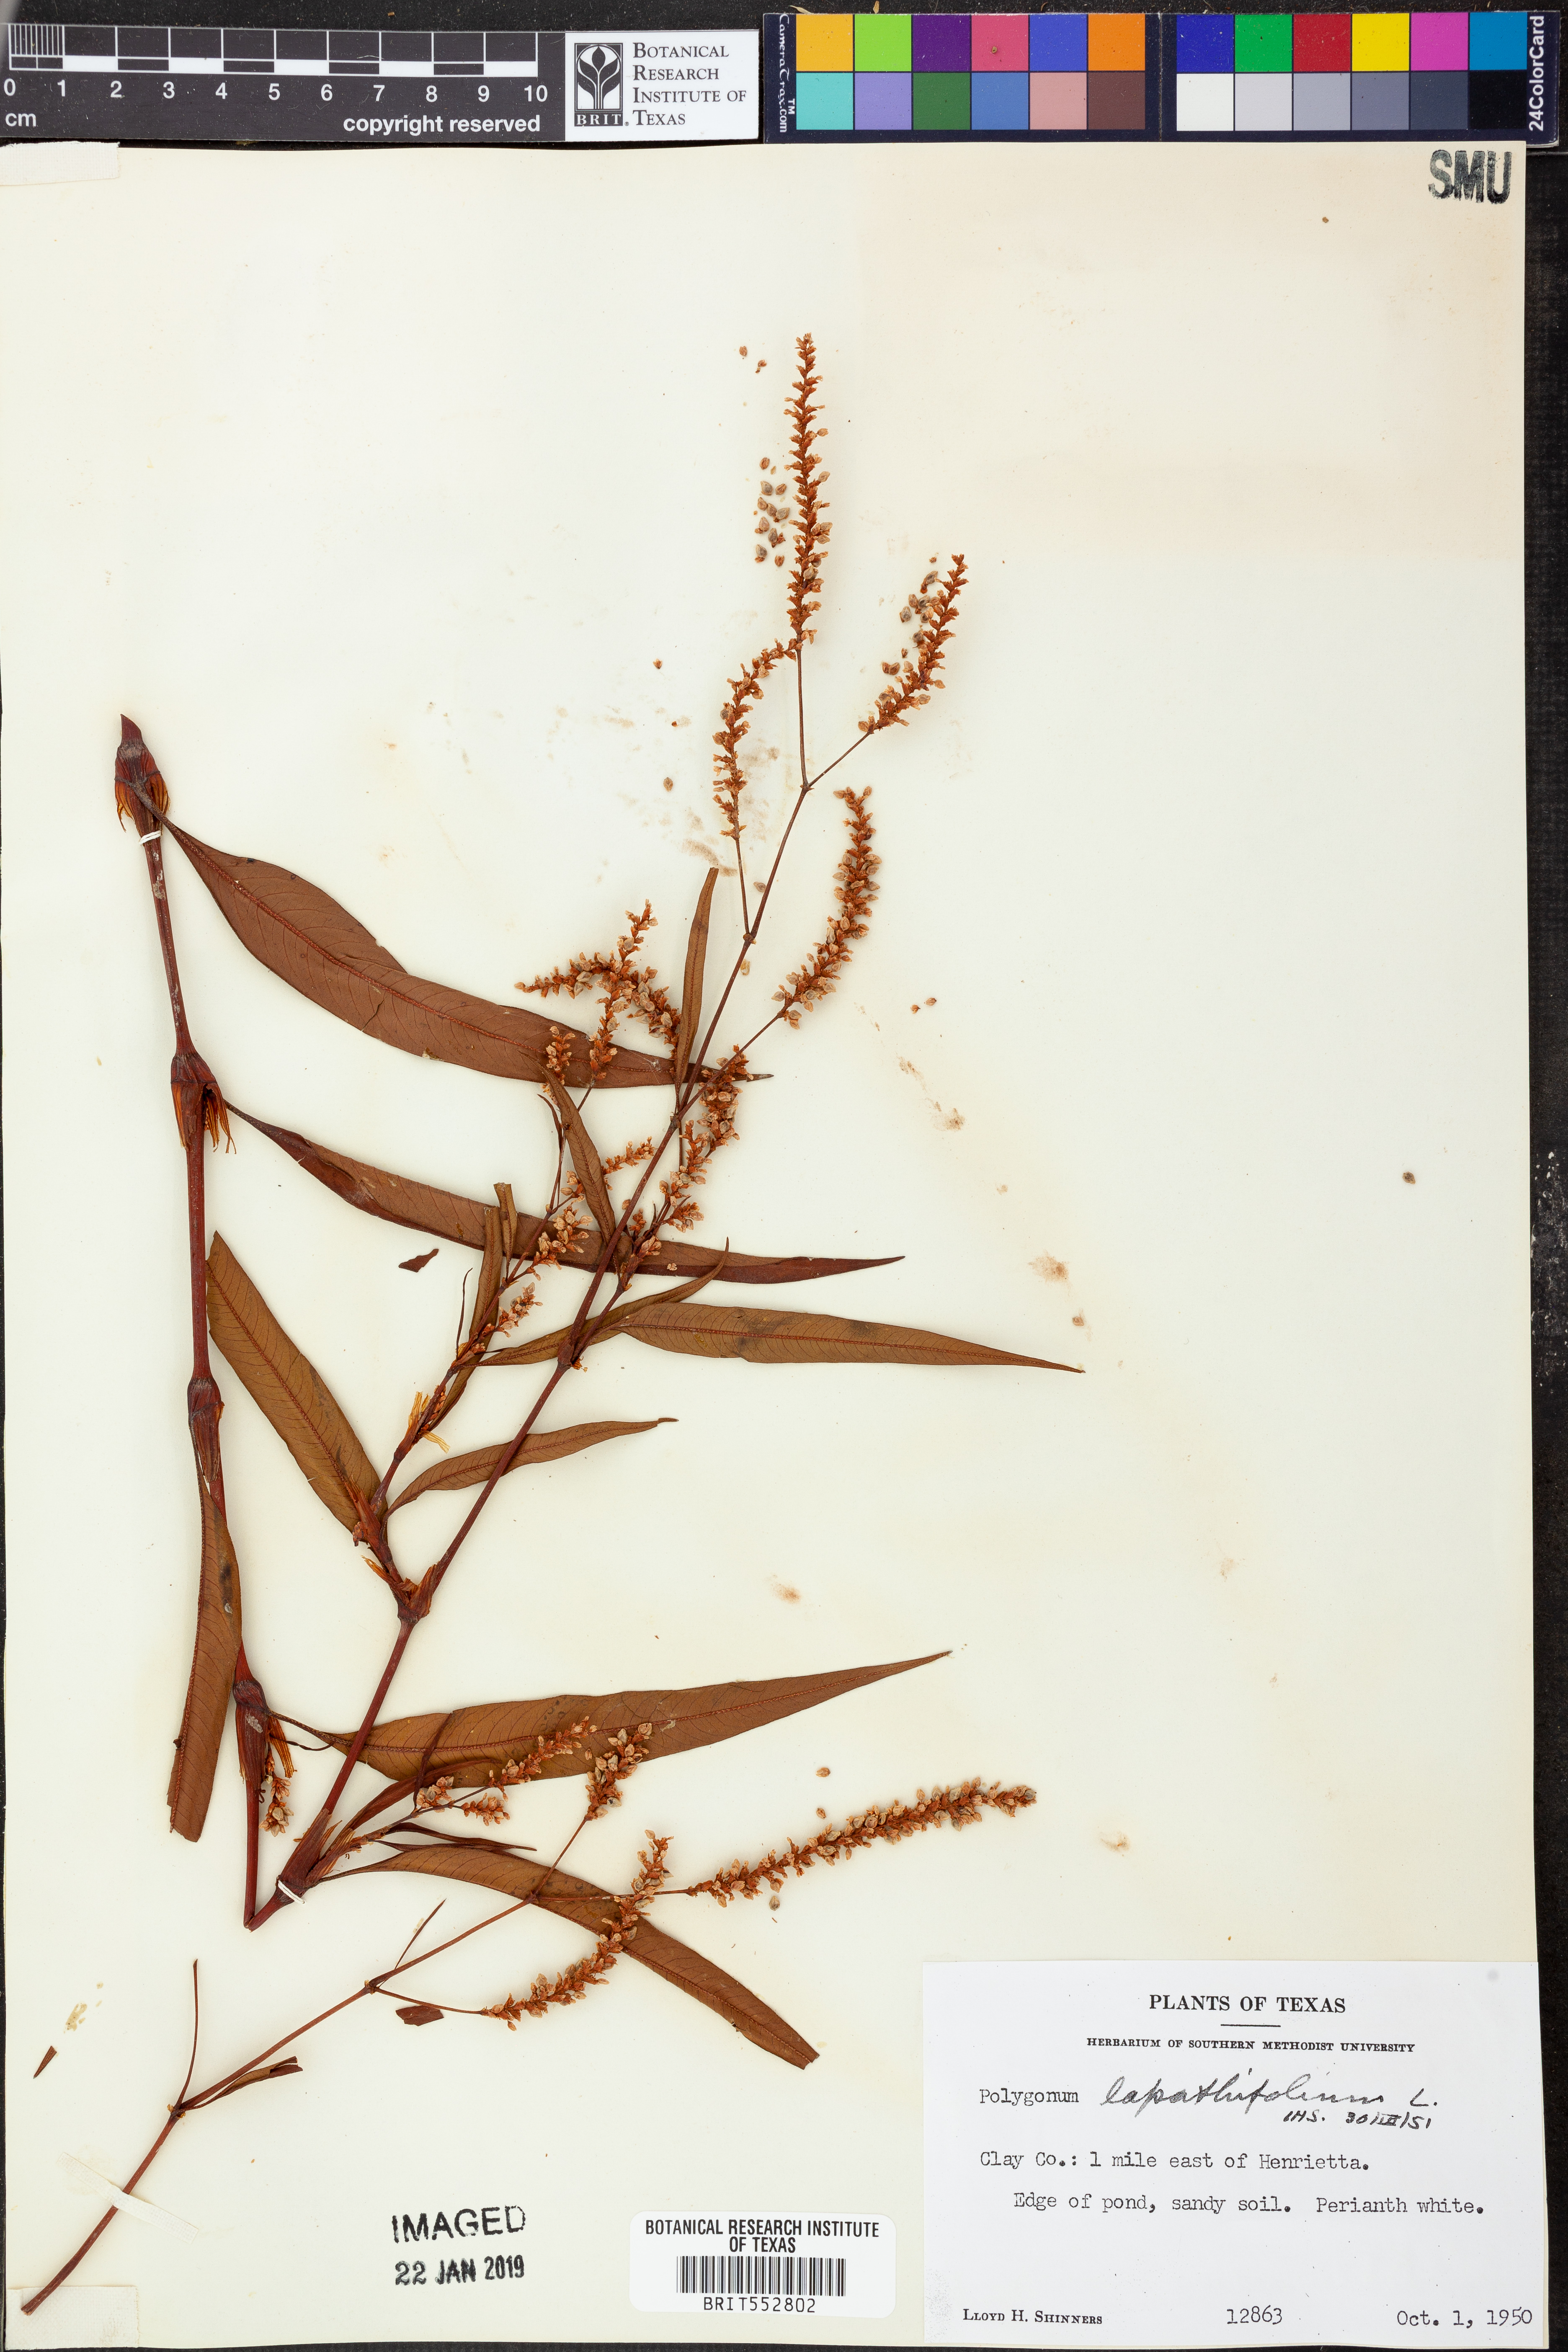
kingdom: Plantae
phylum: Tracheophyta
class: Magnoliopsida
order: Caryophyllales
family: Polygonaceae
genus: Persicaria
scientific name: Persicaria lapathifolia
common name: Curlytop knotweed
